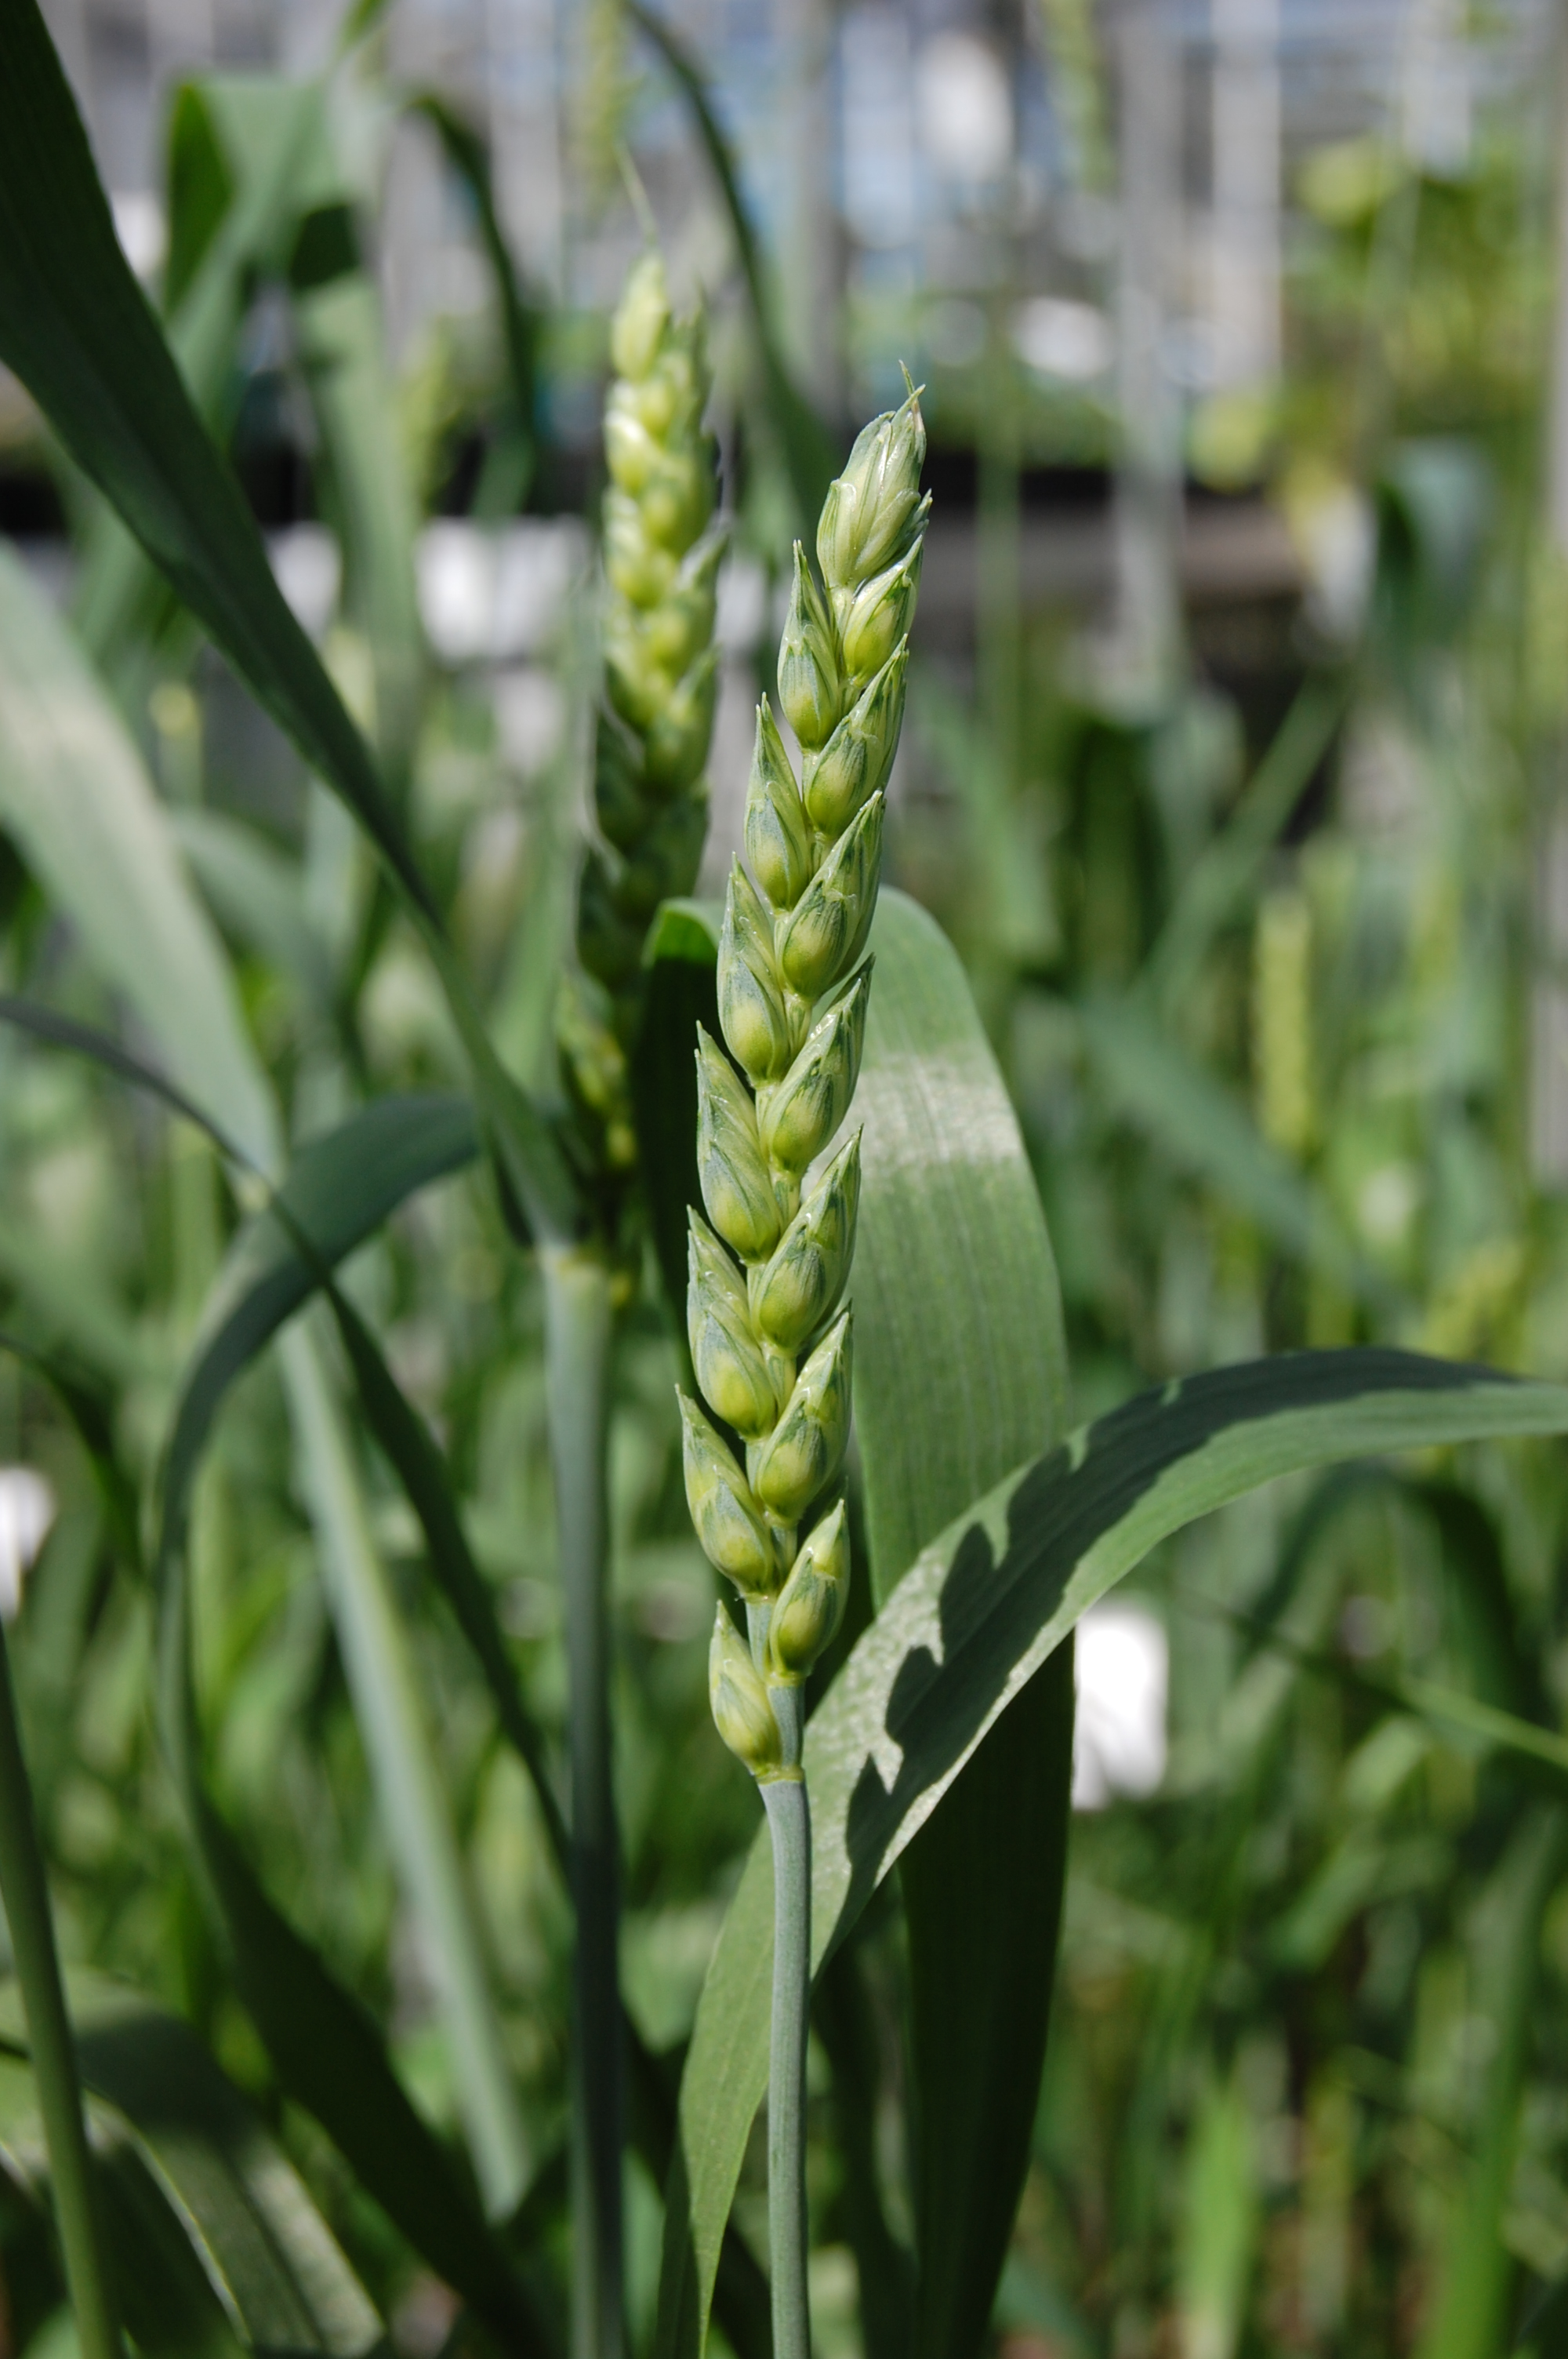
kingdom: Plantae
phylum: Tracheophyta
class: Liliopsida
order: Poales
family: Poaceae
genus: Triticum
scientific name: Triticum aestivum
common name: Common wheat
